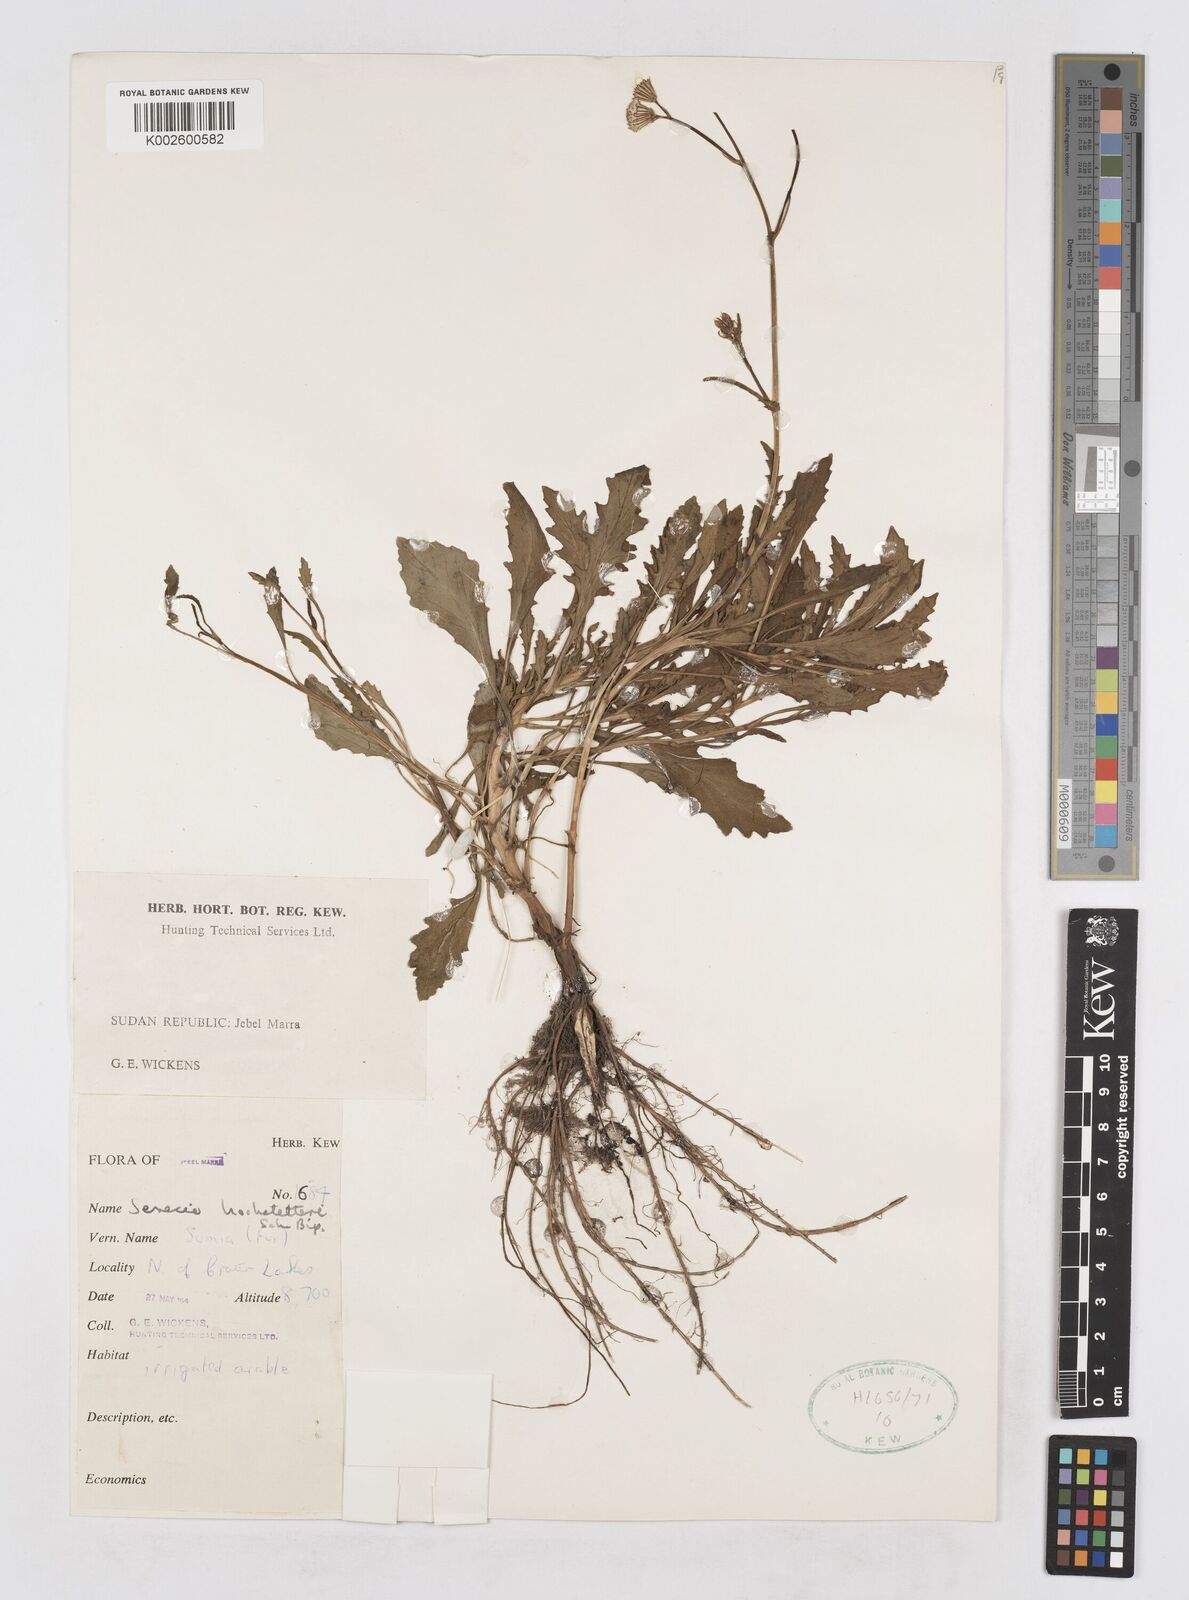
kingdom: Plantae
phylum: Tracheophyta
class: Magnoliopsida
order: Asterales
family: Asteraceae
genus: Senecio
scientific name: Senecio hochstetteri
